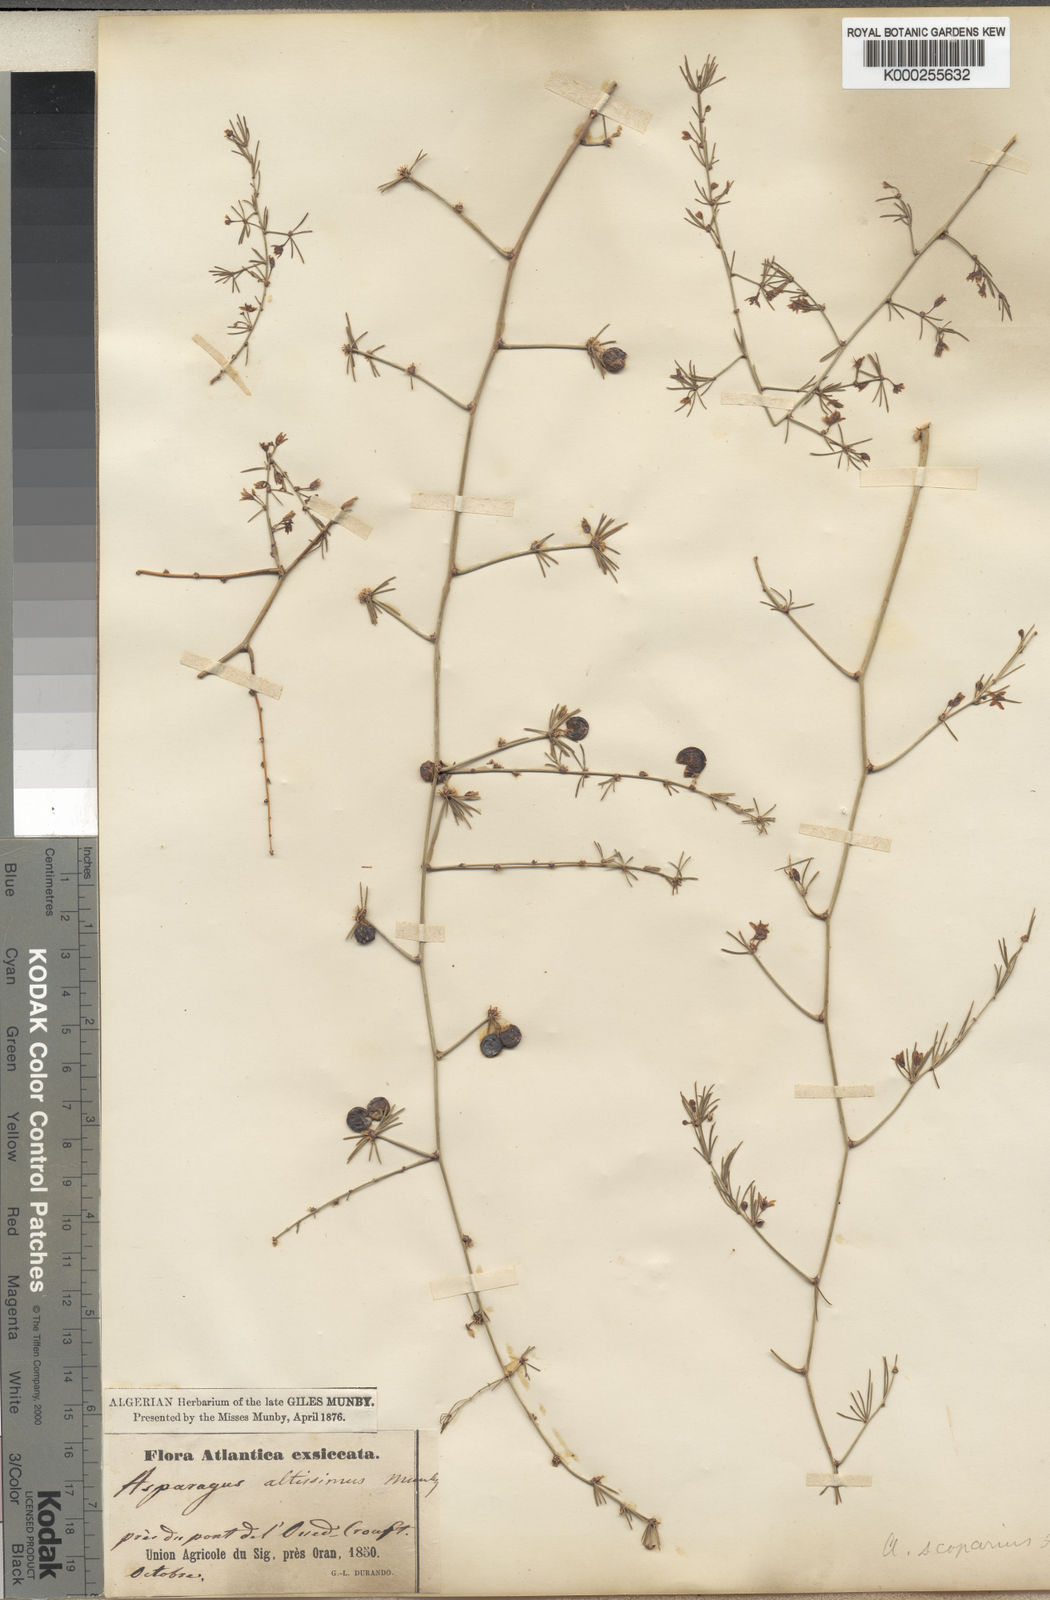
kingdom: Plantae
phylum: Tracheophyta
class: Liliopsida
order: Asparagales
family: Asparagaceae
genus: Asparagus
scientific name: Asparagus scoparius
